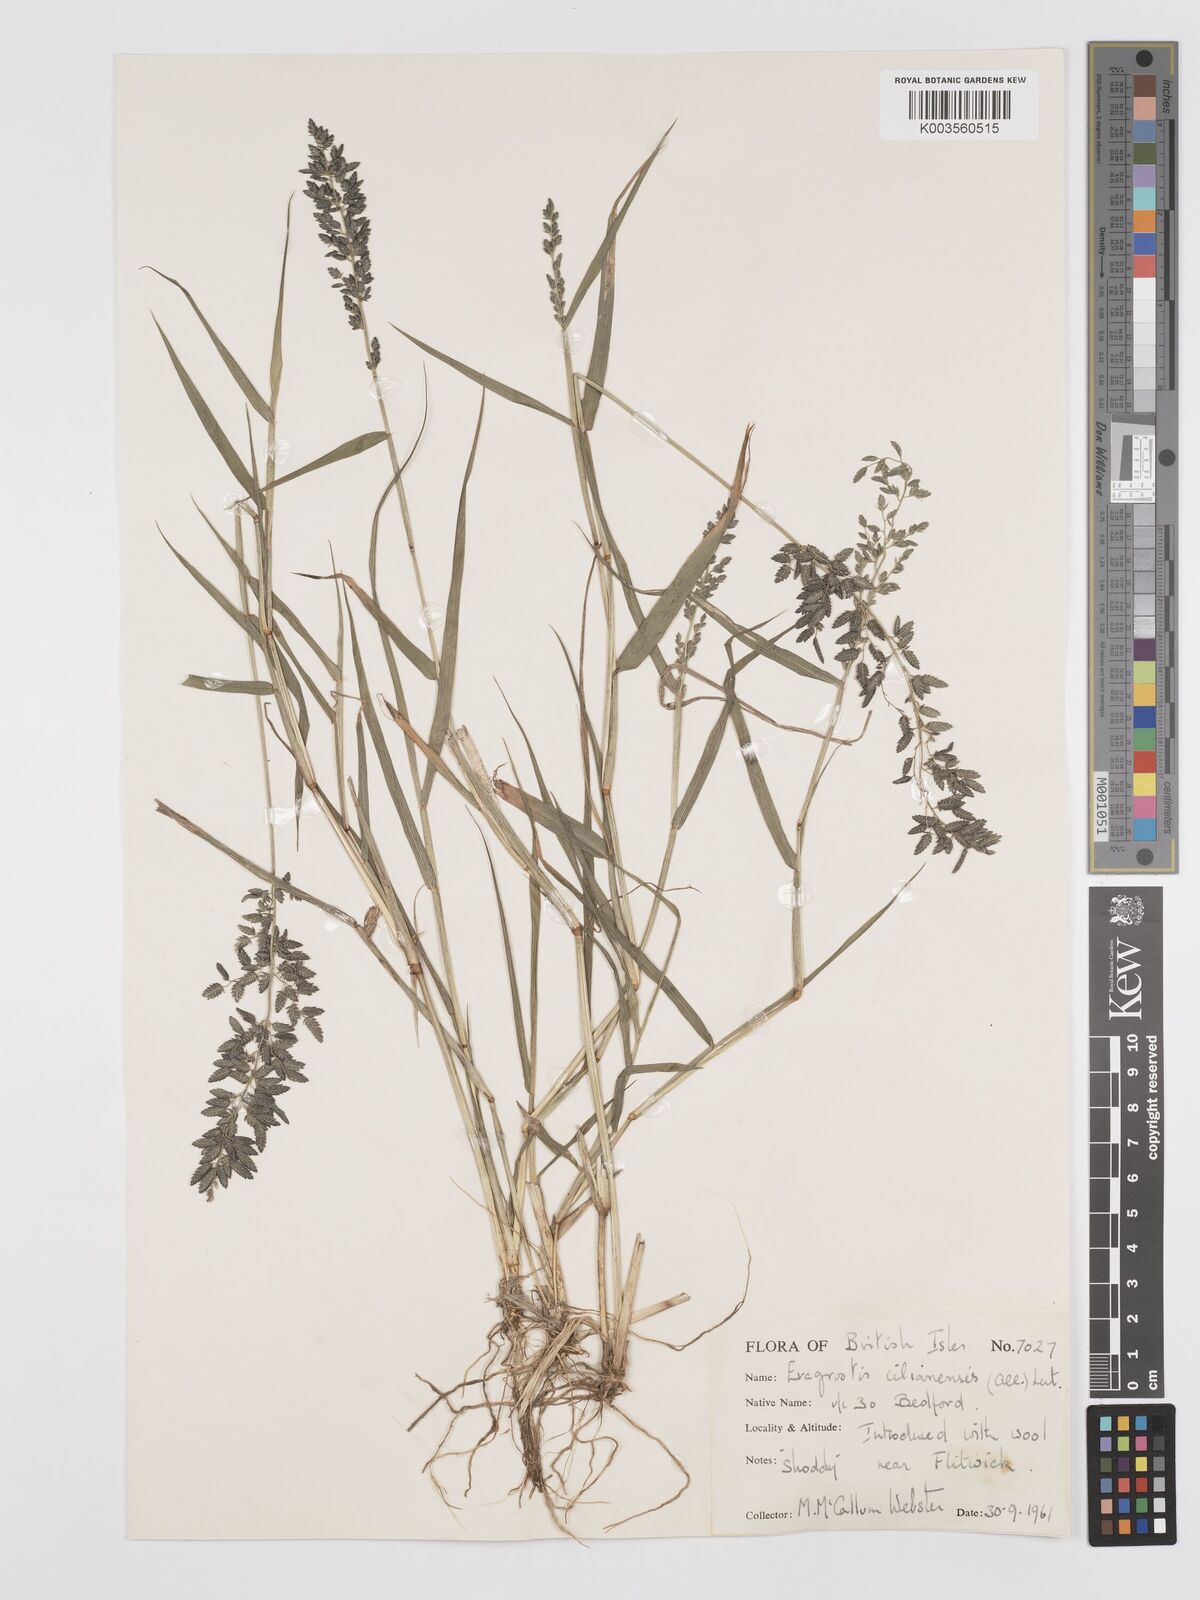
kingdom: Plantae
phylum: Tracheophyta
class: Liliopsida
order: Poales
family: Poaceae
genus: Eragrostis
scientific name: Eragrostis cilianensis
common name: Stinkgrass
